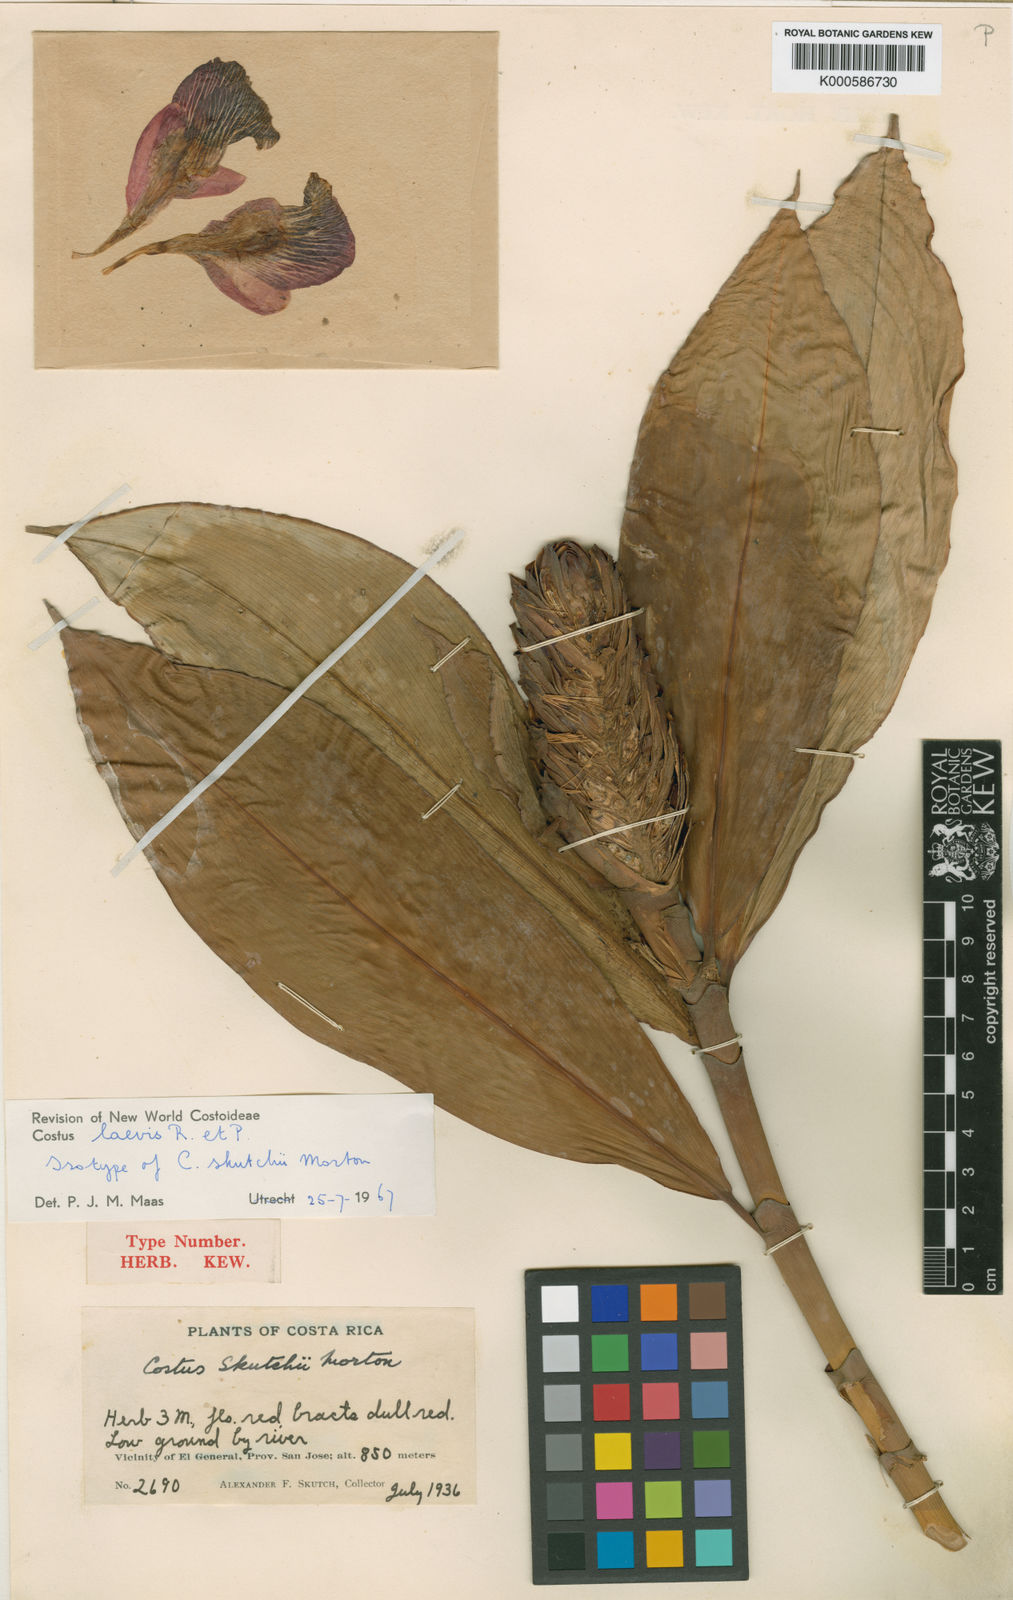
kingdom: Plantae
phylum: Tracheophyta
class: Liliopsida
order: Zingiberales
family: Costaceae
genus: Costus
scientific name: Costus laevis
